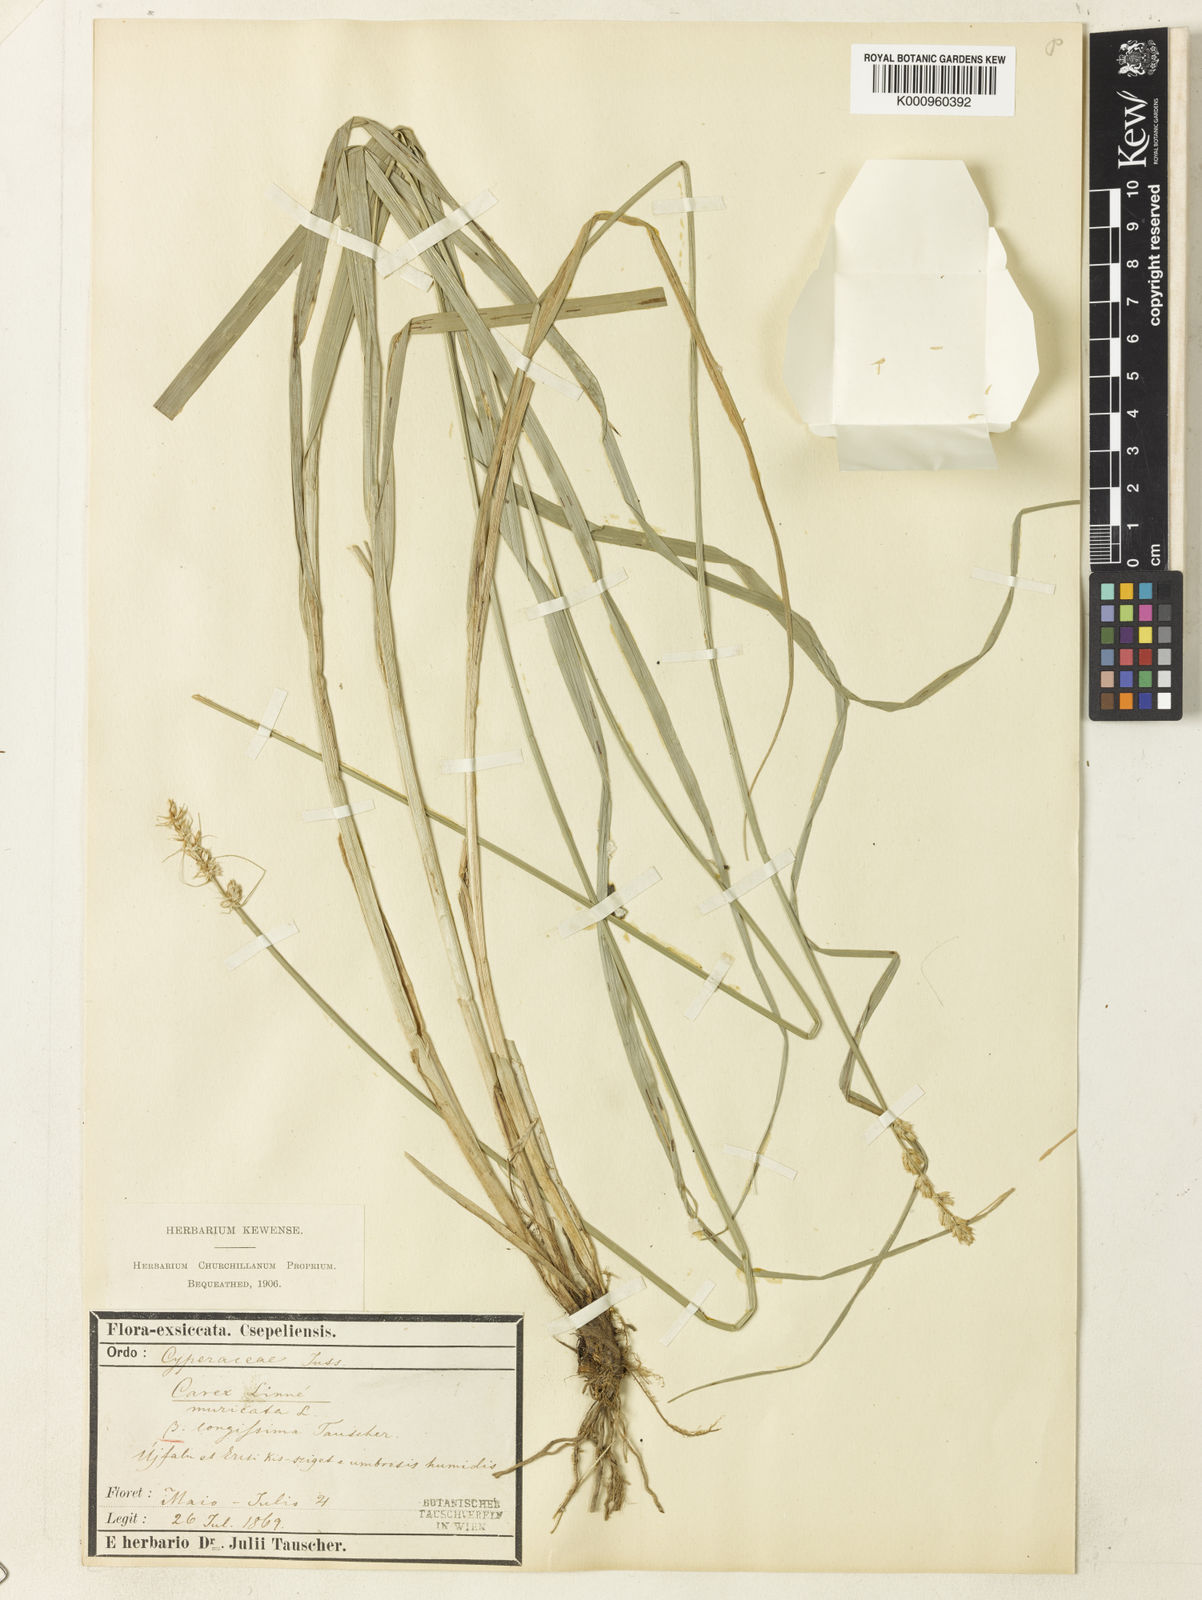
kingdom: Plantae
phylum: Tracheophyta
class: Liliopsida
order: Poales
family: Cyperaceae
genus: Carex
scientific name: Carex spicata
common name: Spiked sedge
